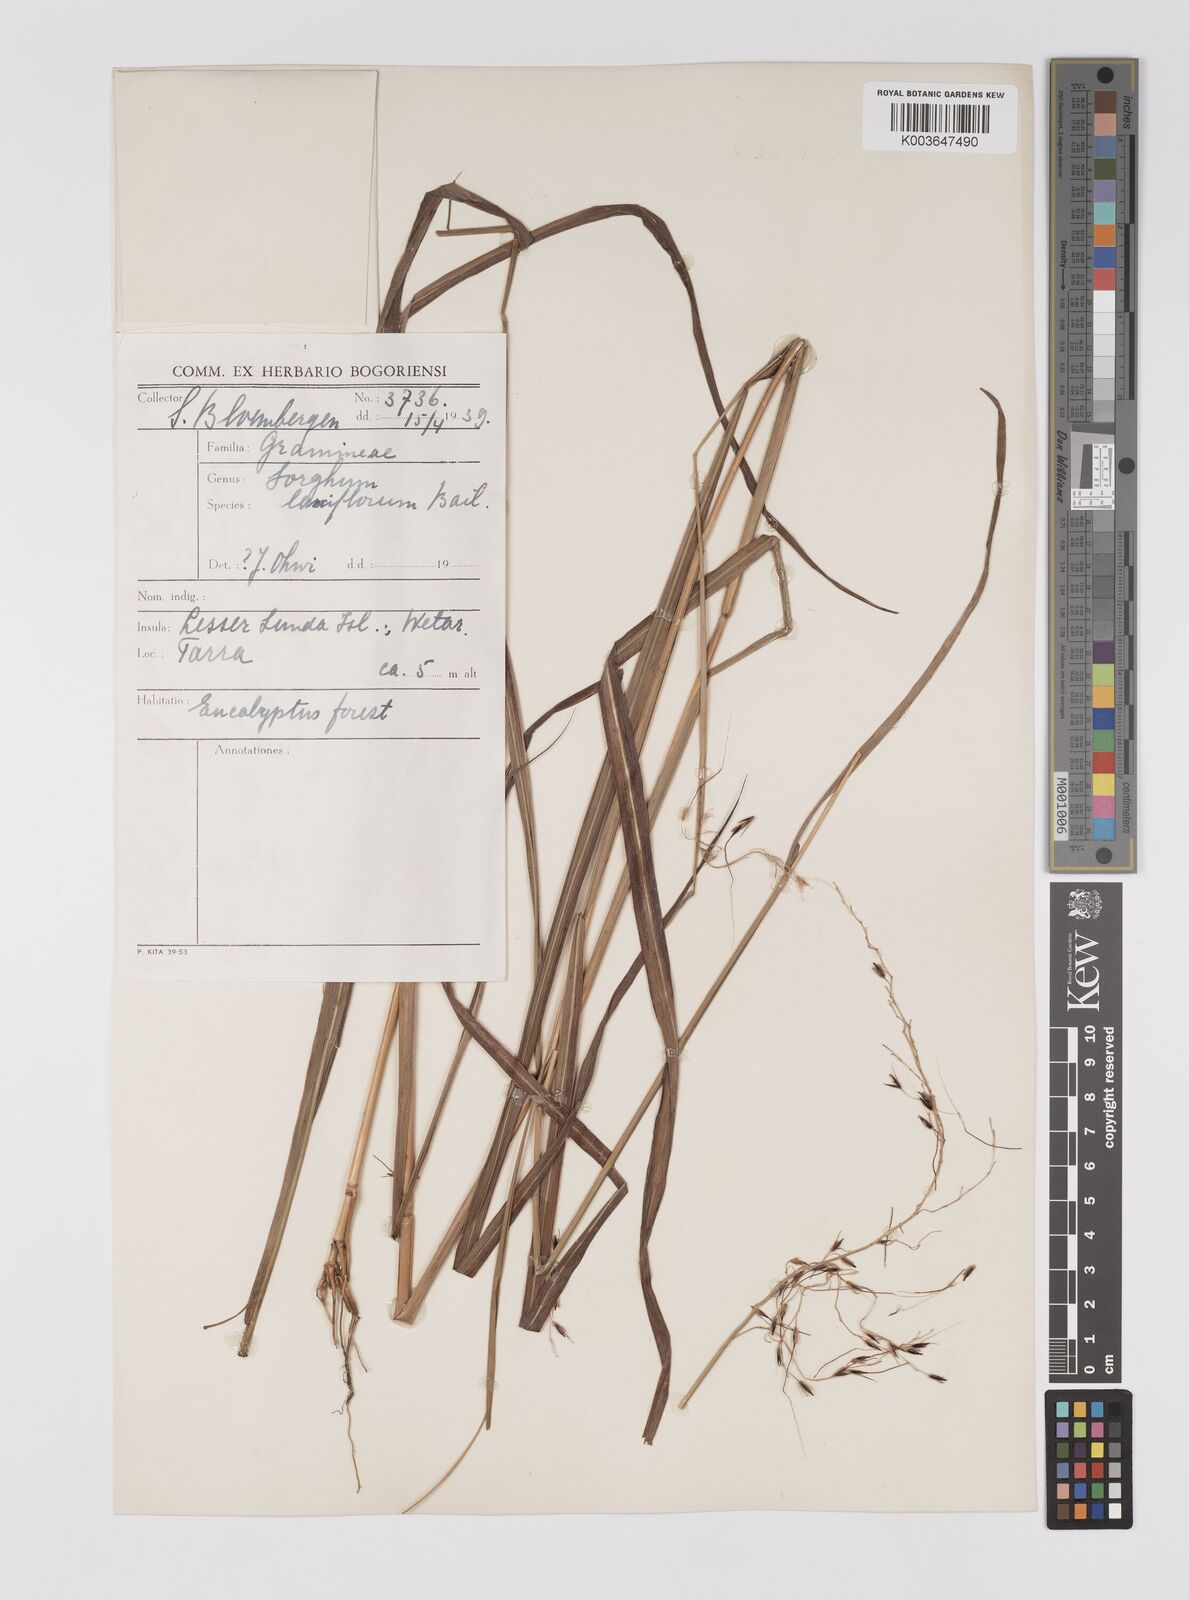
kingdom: Plantae
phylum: Tracheophyta
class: Liliopsida
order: Poales
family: Poaceae
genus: Sorghum
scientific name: Sorghum laxiflorum
